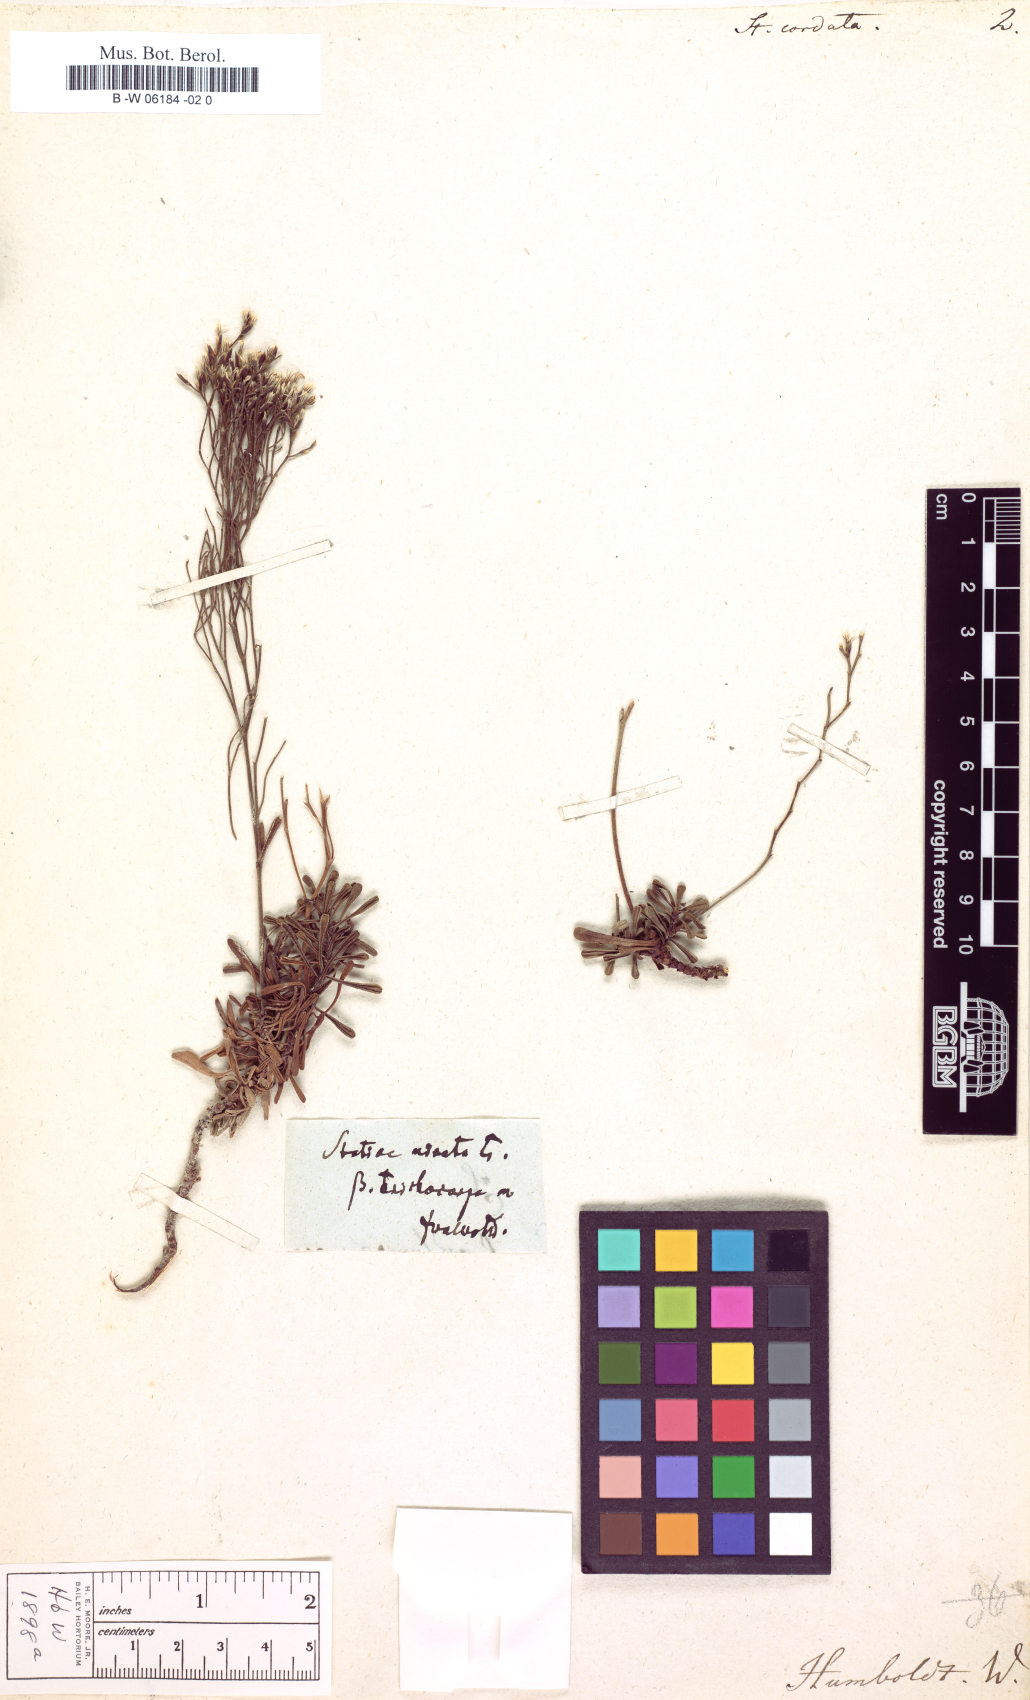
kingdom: Plantae
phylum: Tracheophyta
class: Magnoliopsida
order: Caryophyllales
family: Plumbaginaceae
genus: Limonium
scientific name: Limonium
